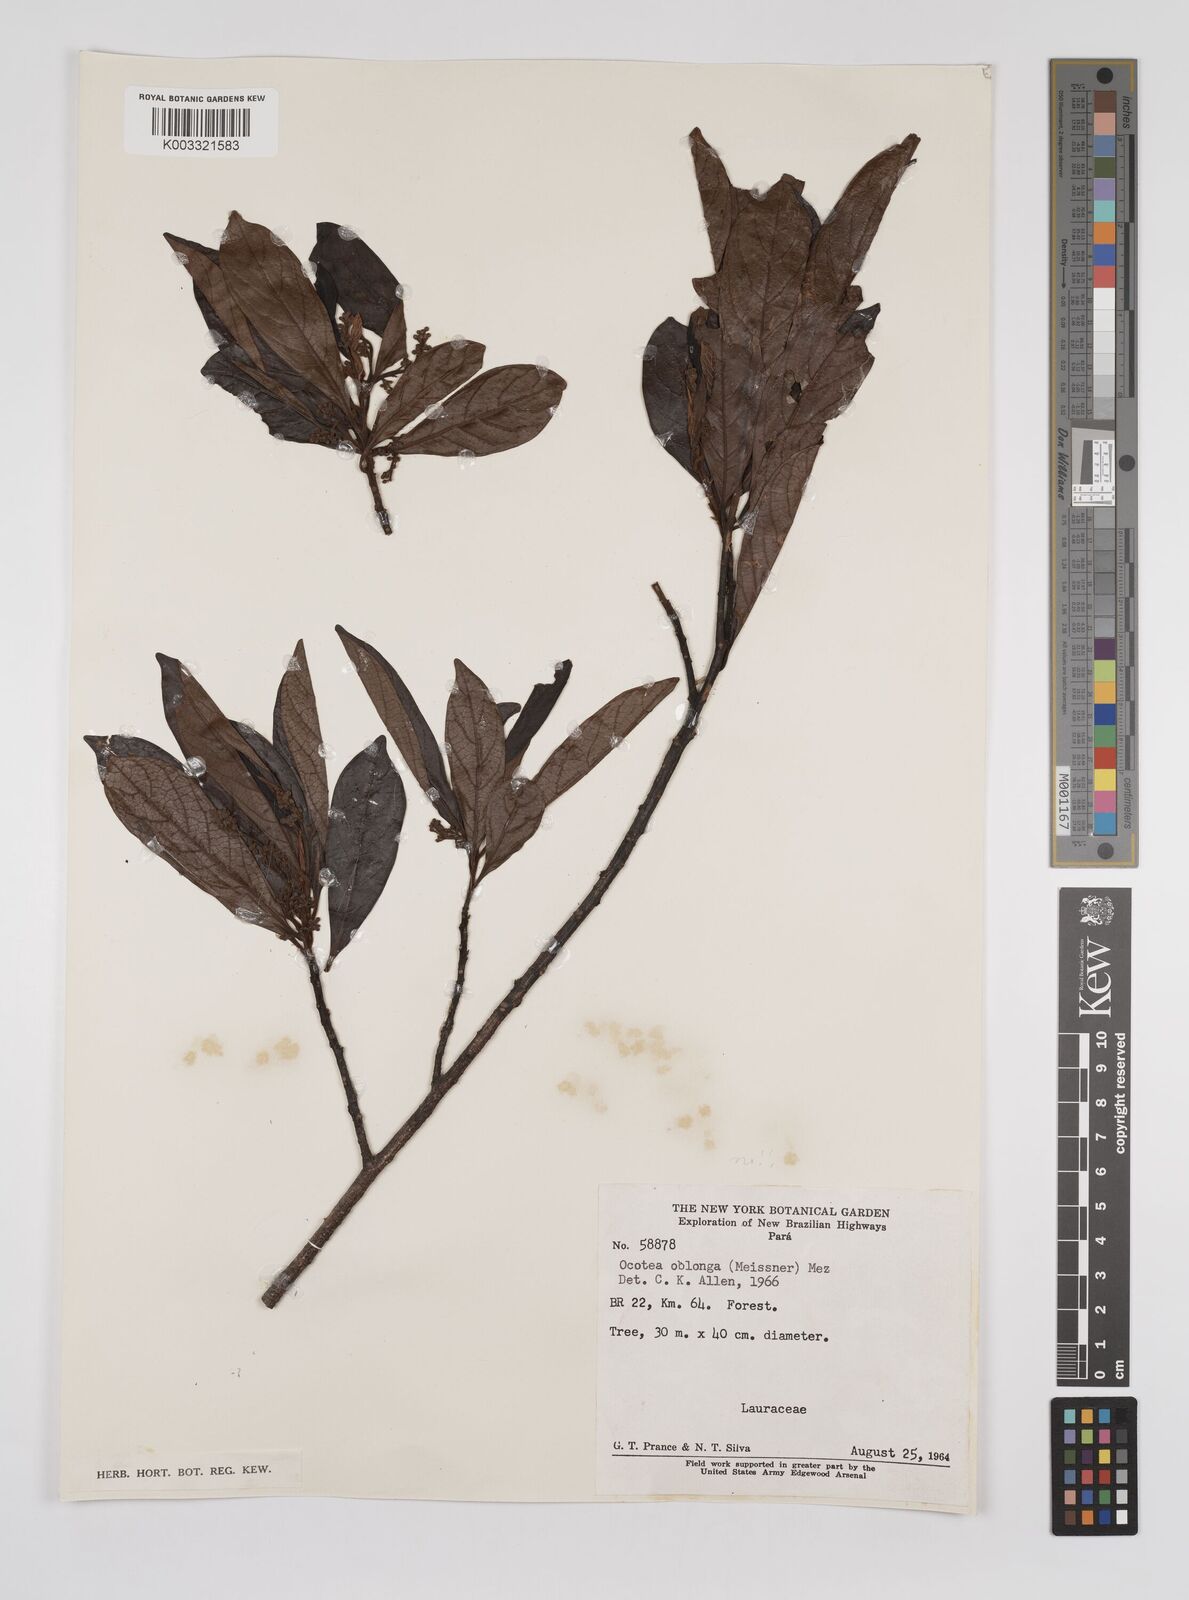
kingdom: Plantae
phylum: Tracheophyta
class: Magnoliopsida
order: Laurales
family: Lauraceae
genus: Ocotea
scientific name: Ocotea oblonga
